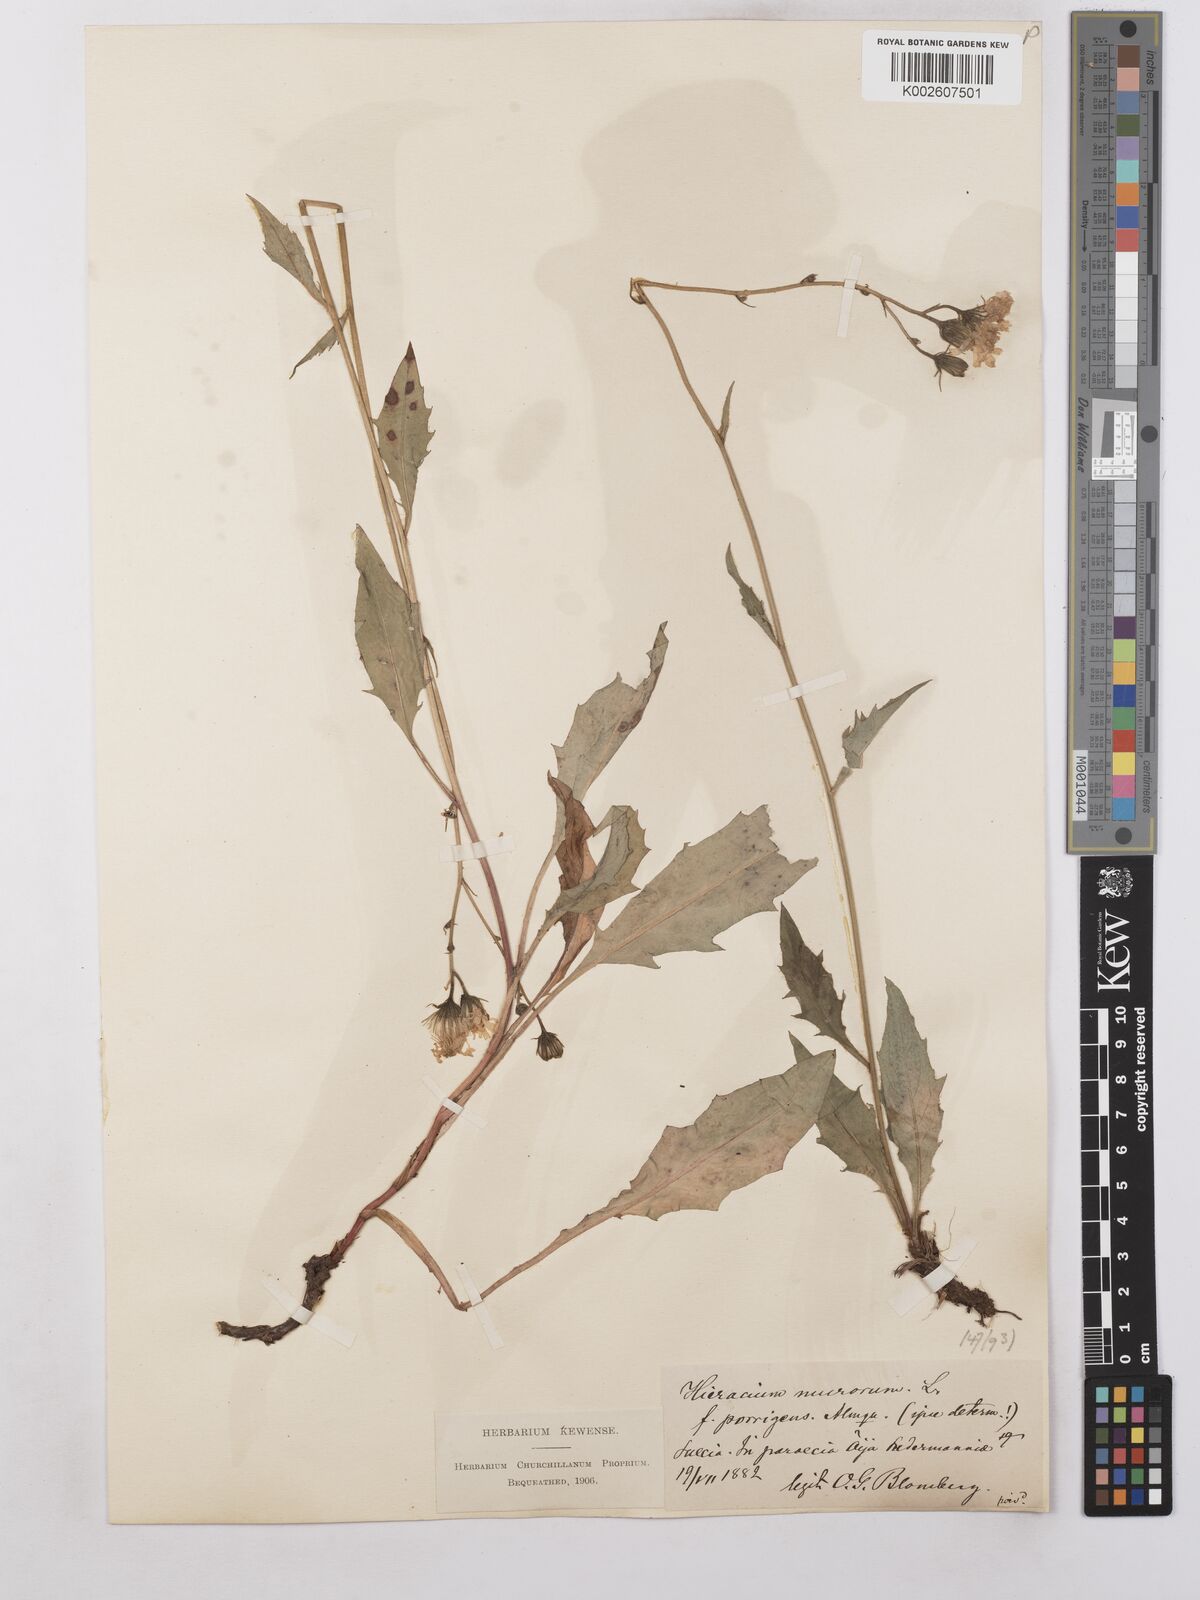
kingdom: Plantae
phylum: Tracheophyta
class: Magnoliopsida
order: Asterales
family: Asteraceae
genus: Hieracium
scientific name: Hieracium caesium
